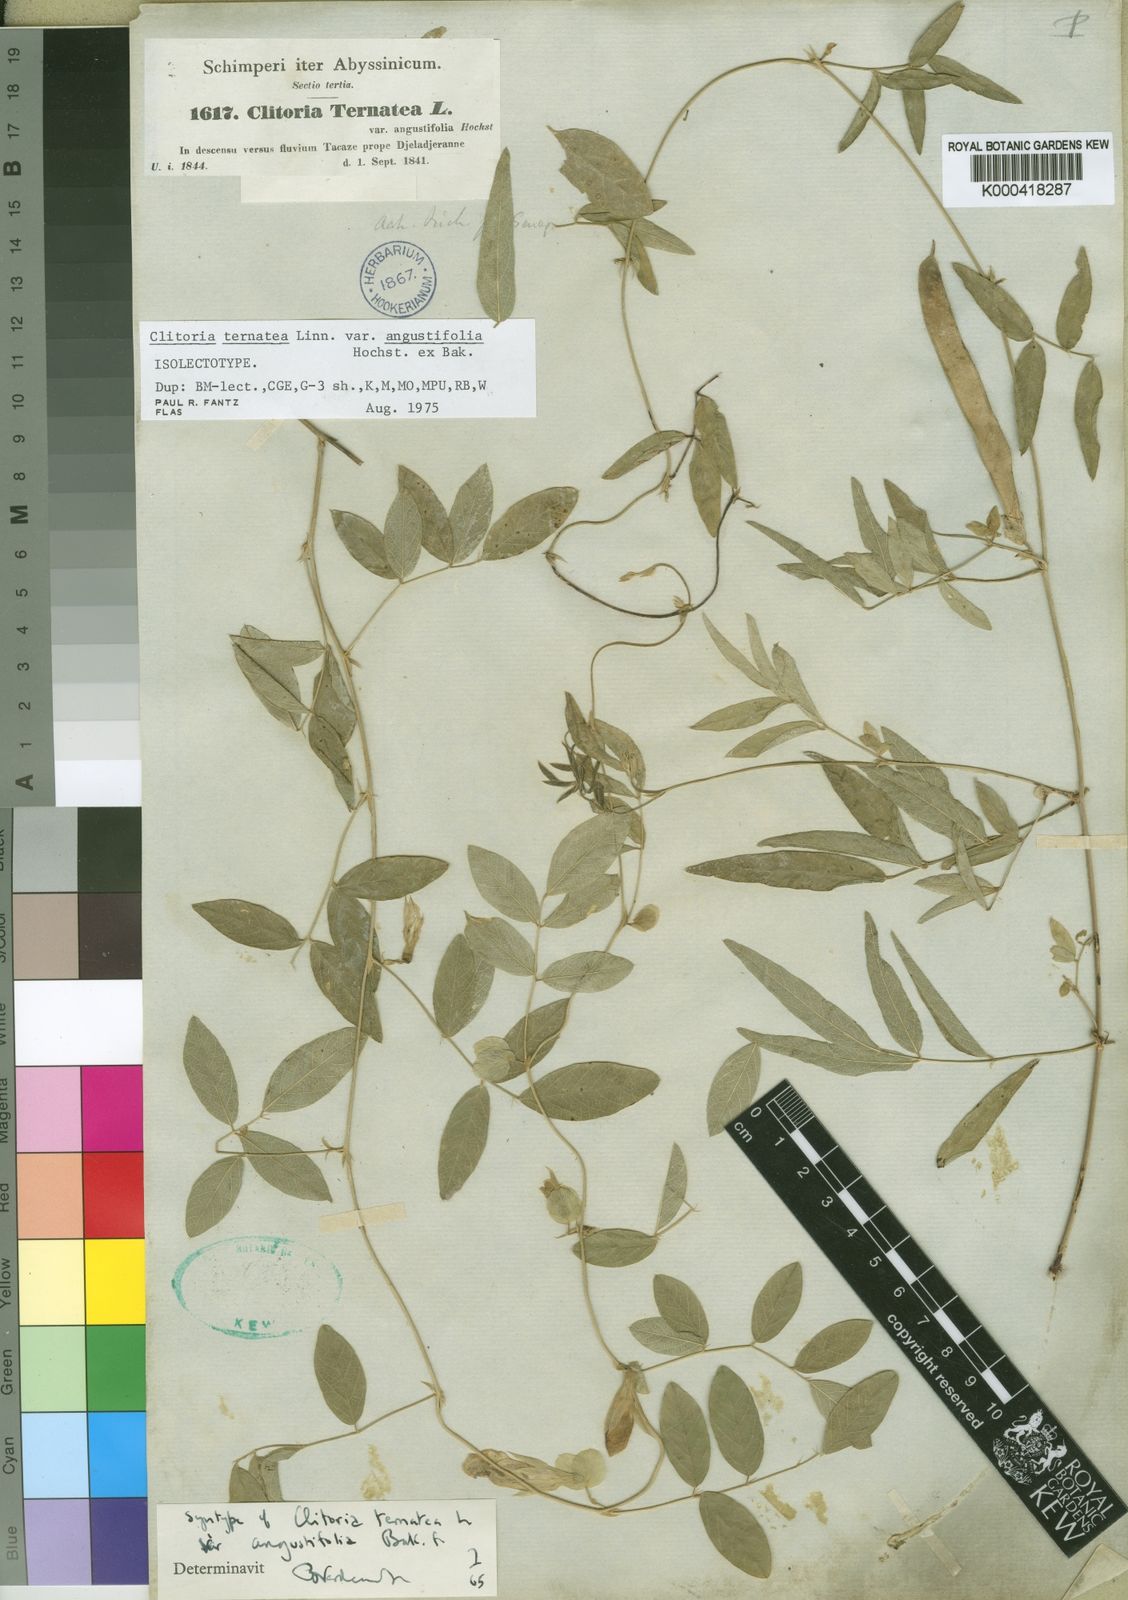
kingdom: Plantae
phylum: Tracheophyta
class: Magnoliopsida
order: Fabales
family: Fabaceae
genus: Clitoria
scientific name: Clitoria ternatea
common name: Asian pigeonwings
